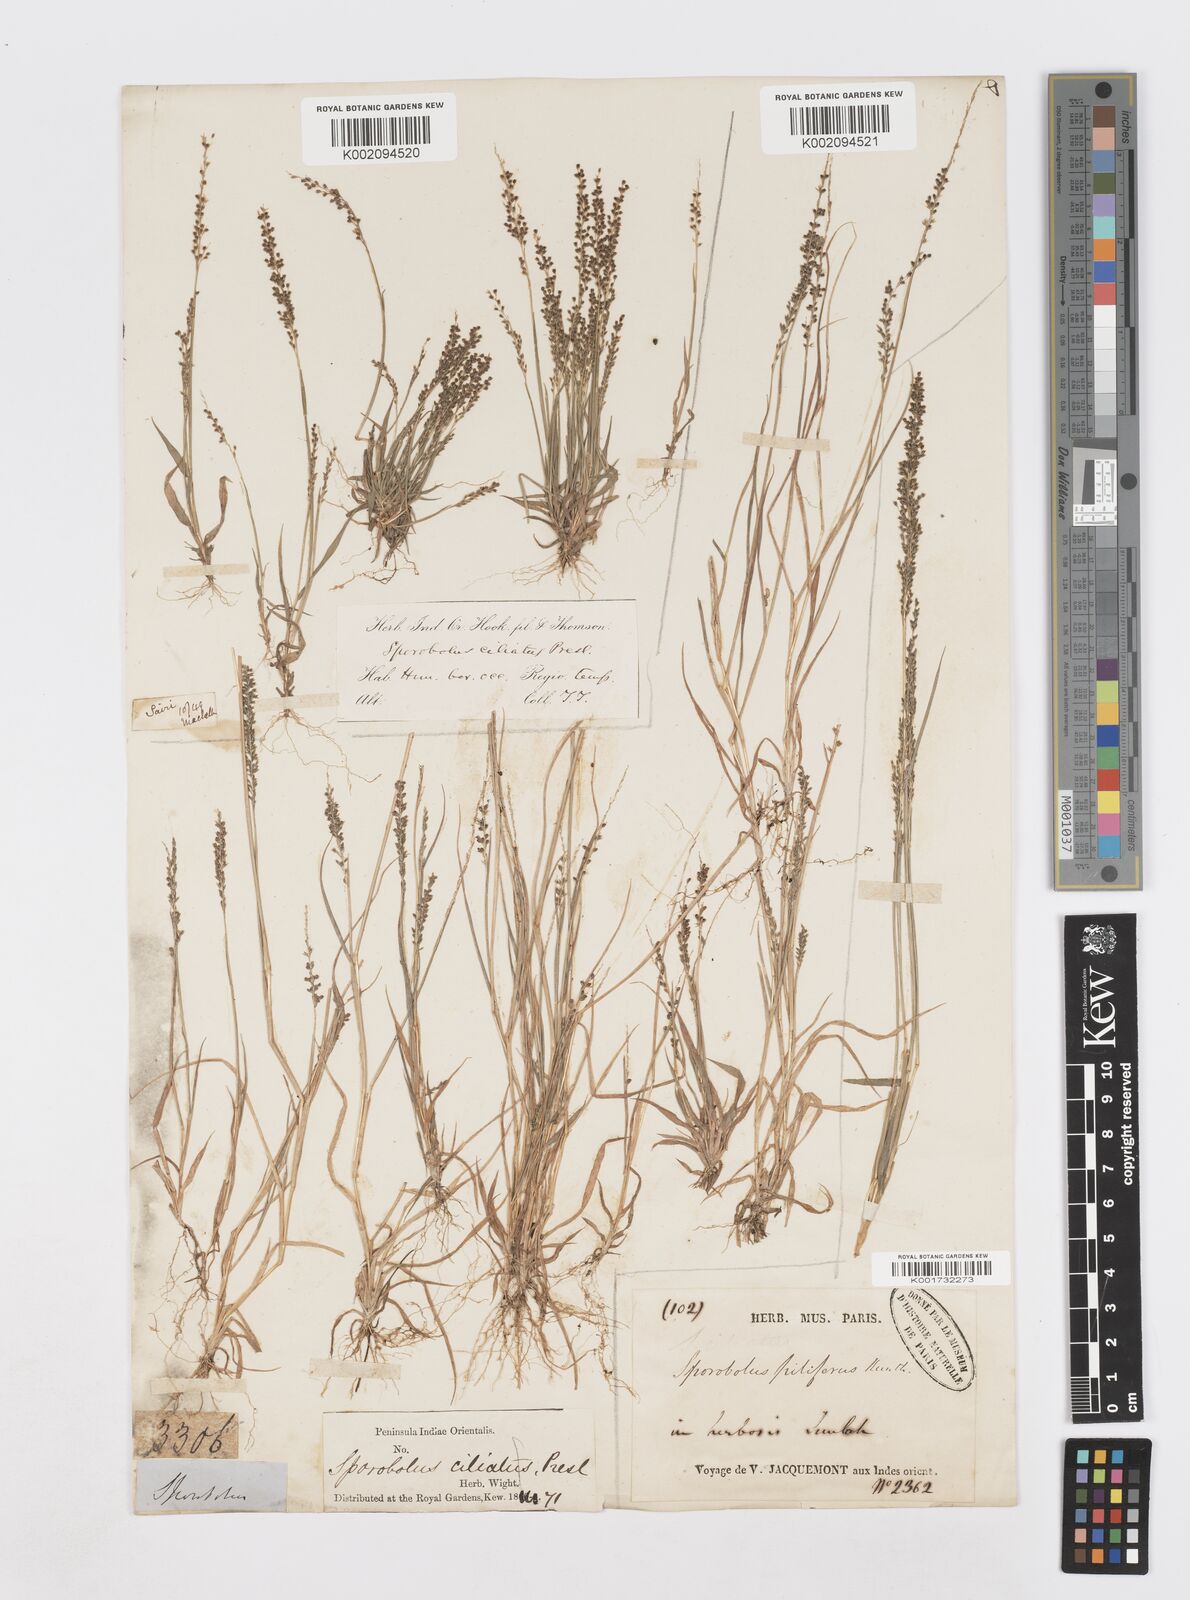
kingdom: Plantae
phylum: Tracheophyta
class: Liliopsida
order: Poales
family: Poaceae
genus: Sporobolus
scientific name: Sporobolus pilifer
